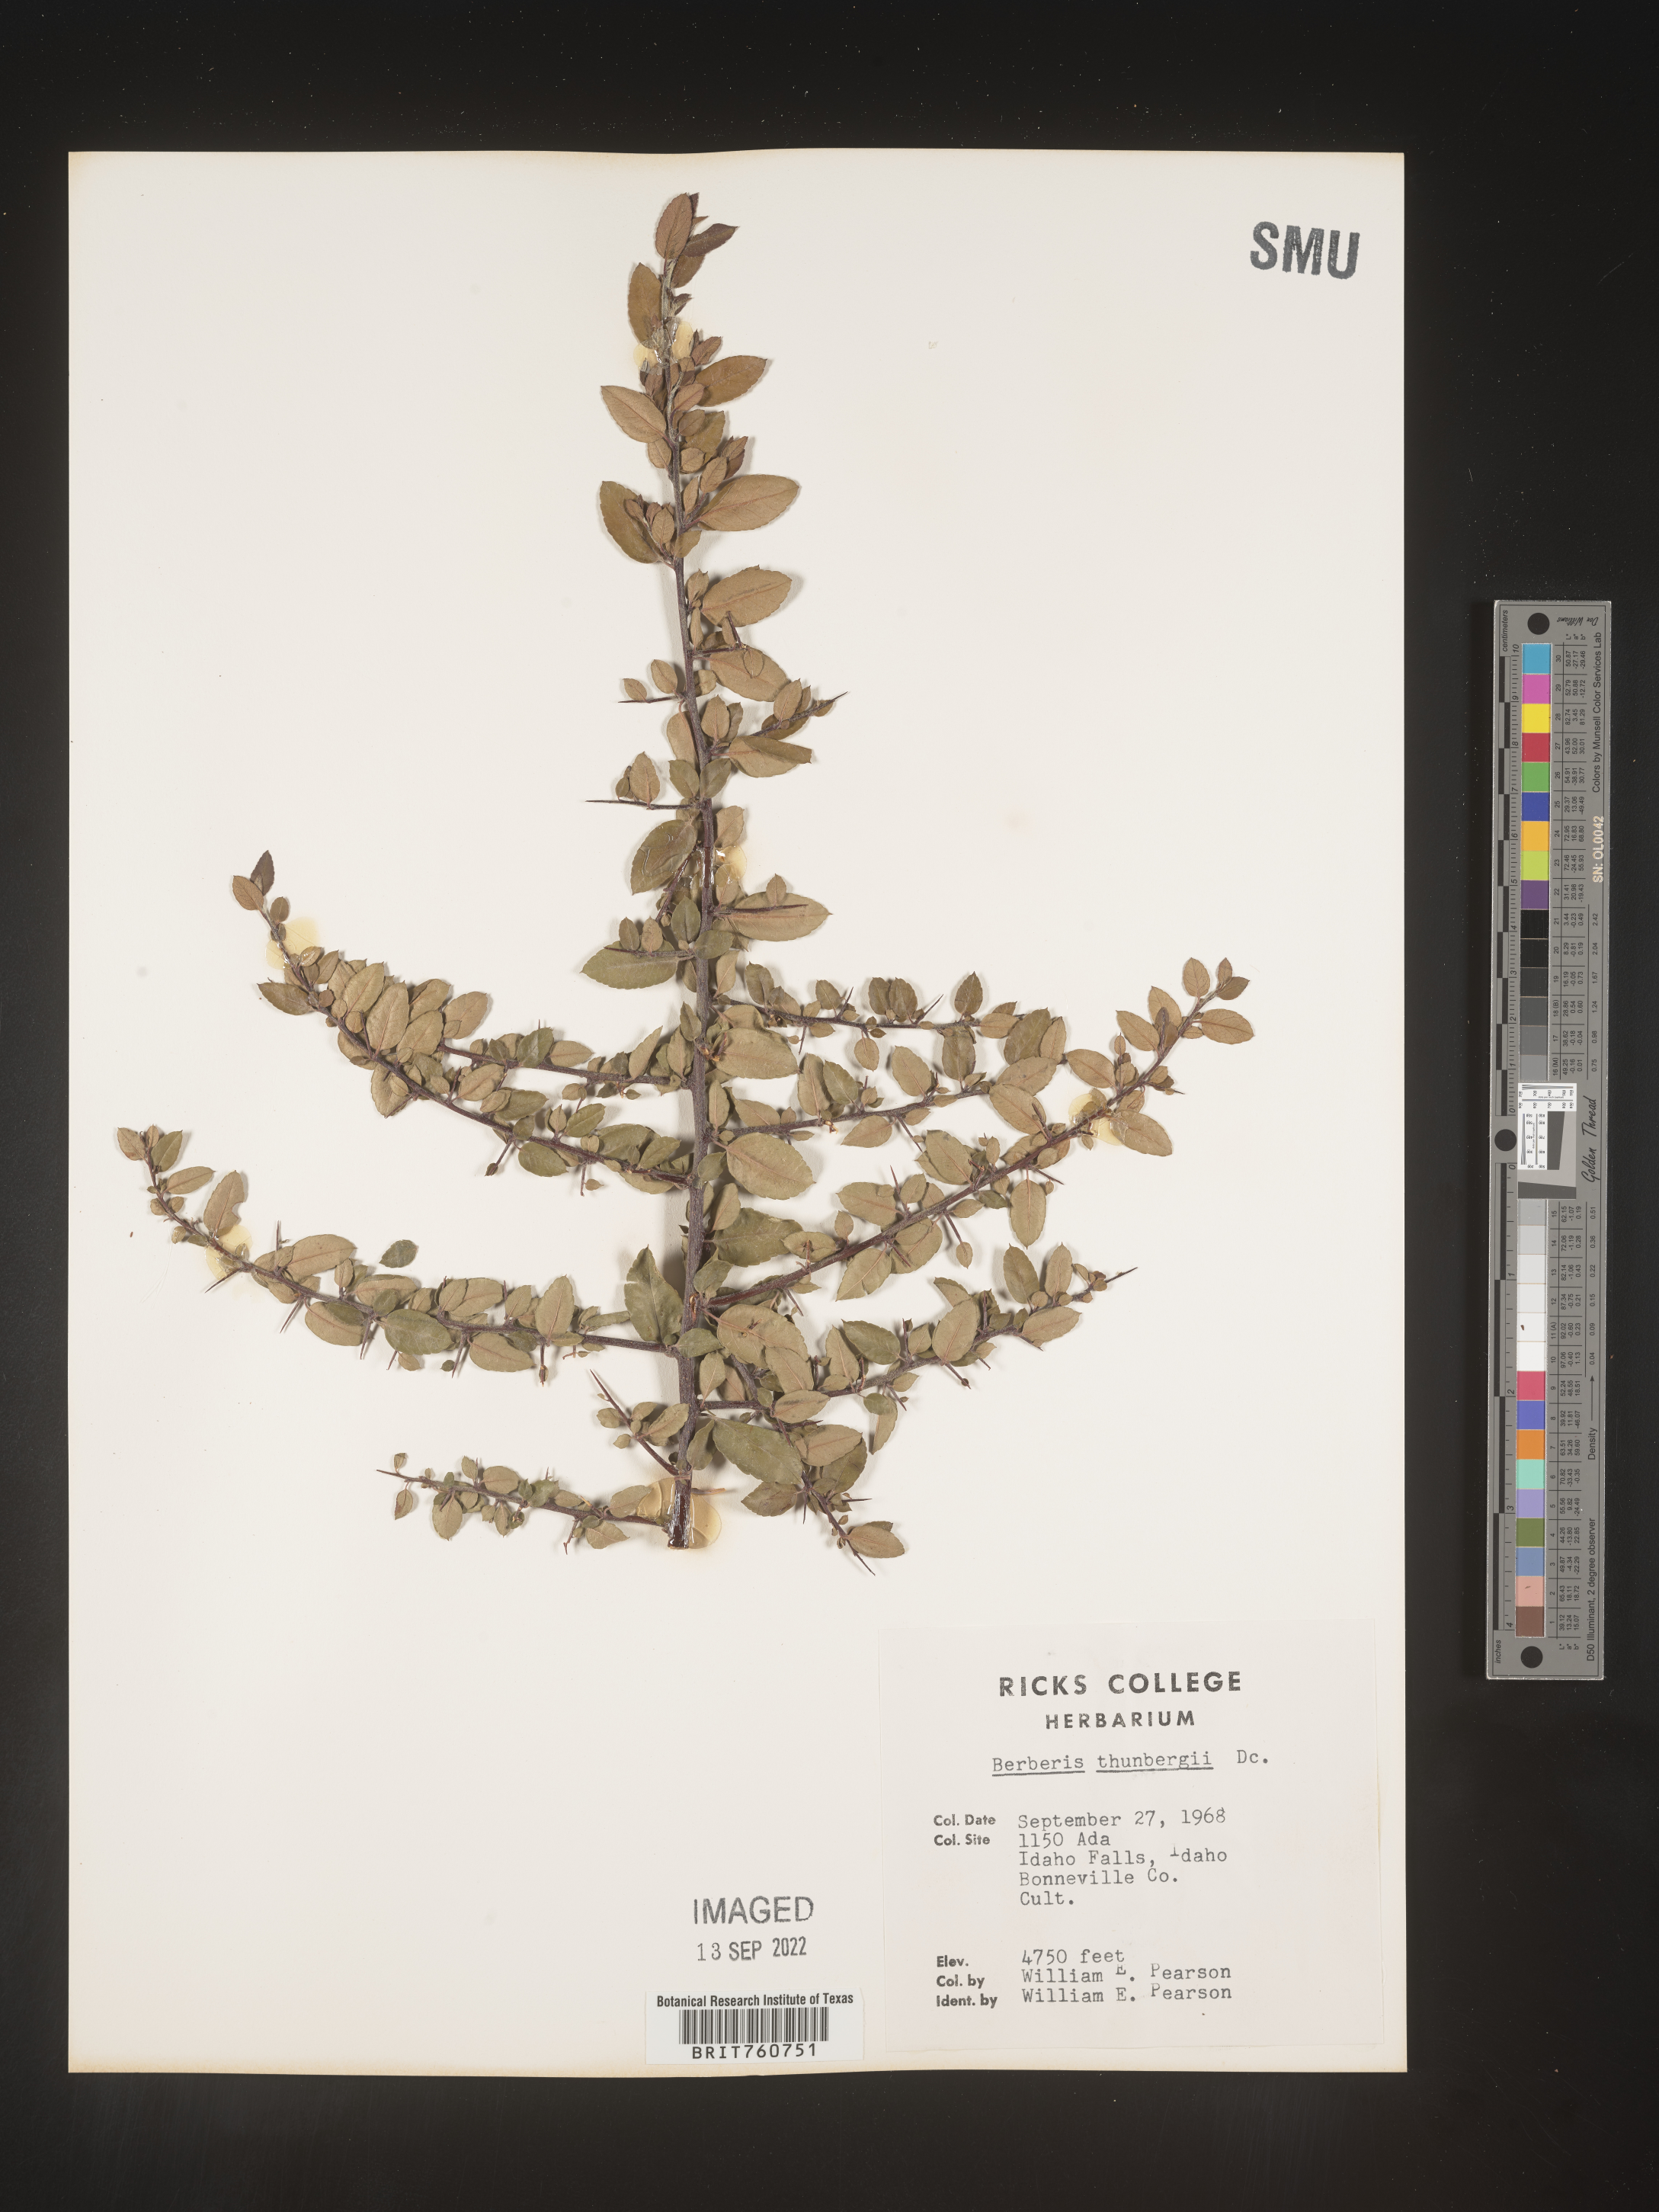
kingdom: Plantae
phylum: Tracheophyta
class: Magnoliopsida
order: Ranunculales
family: Berberidaceae
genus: Berberis
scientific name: Berberis
